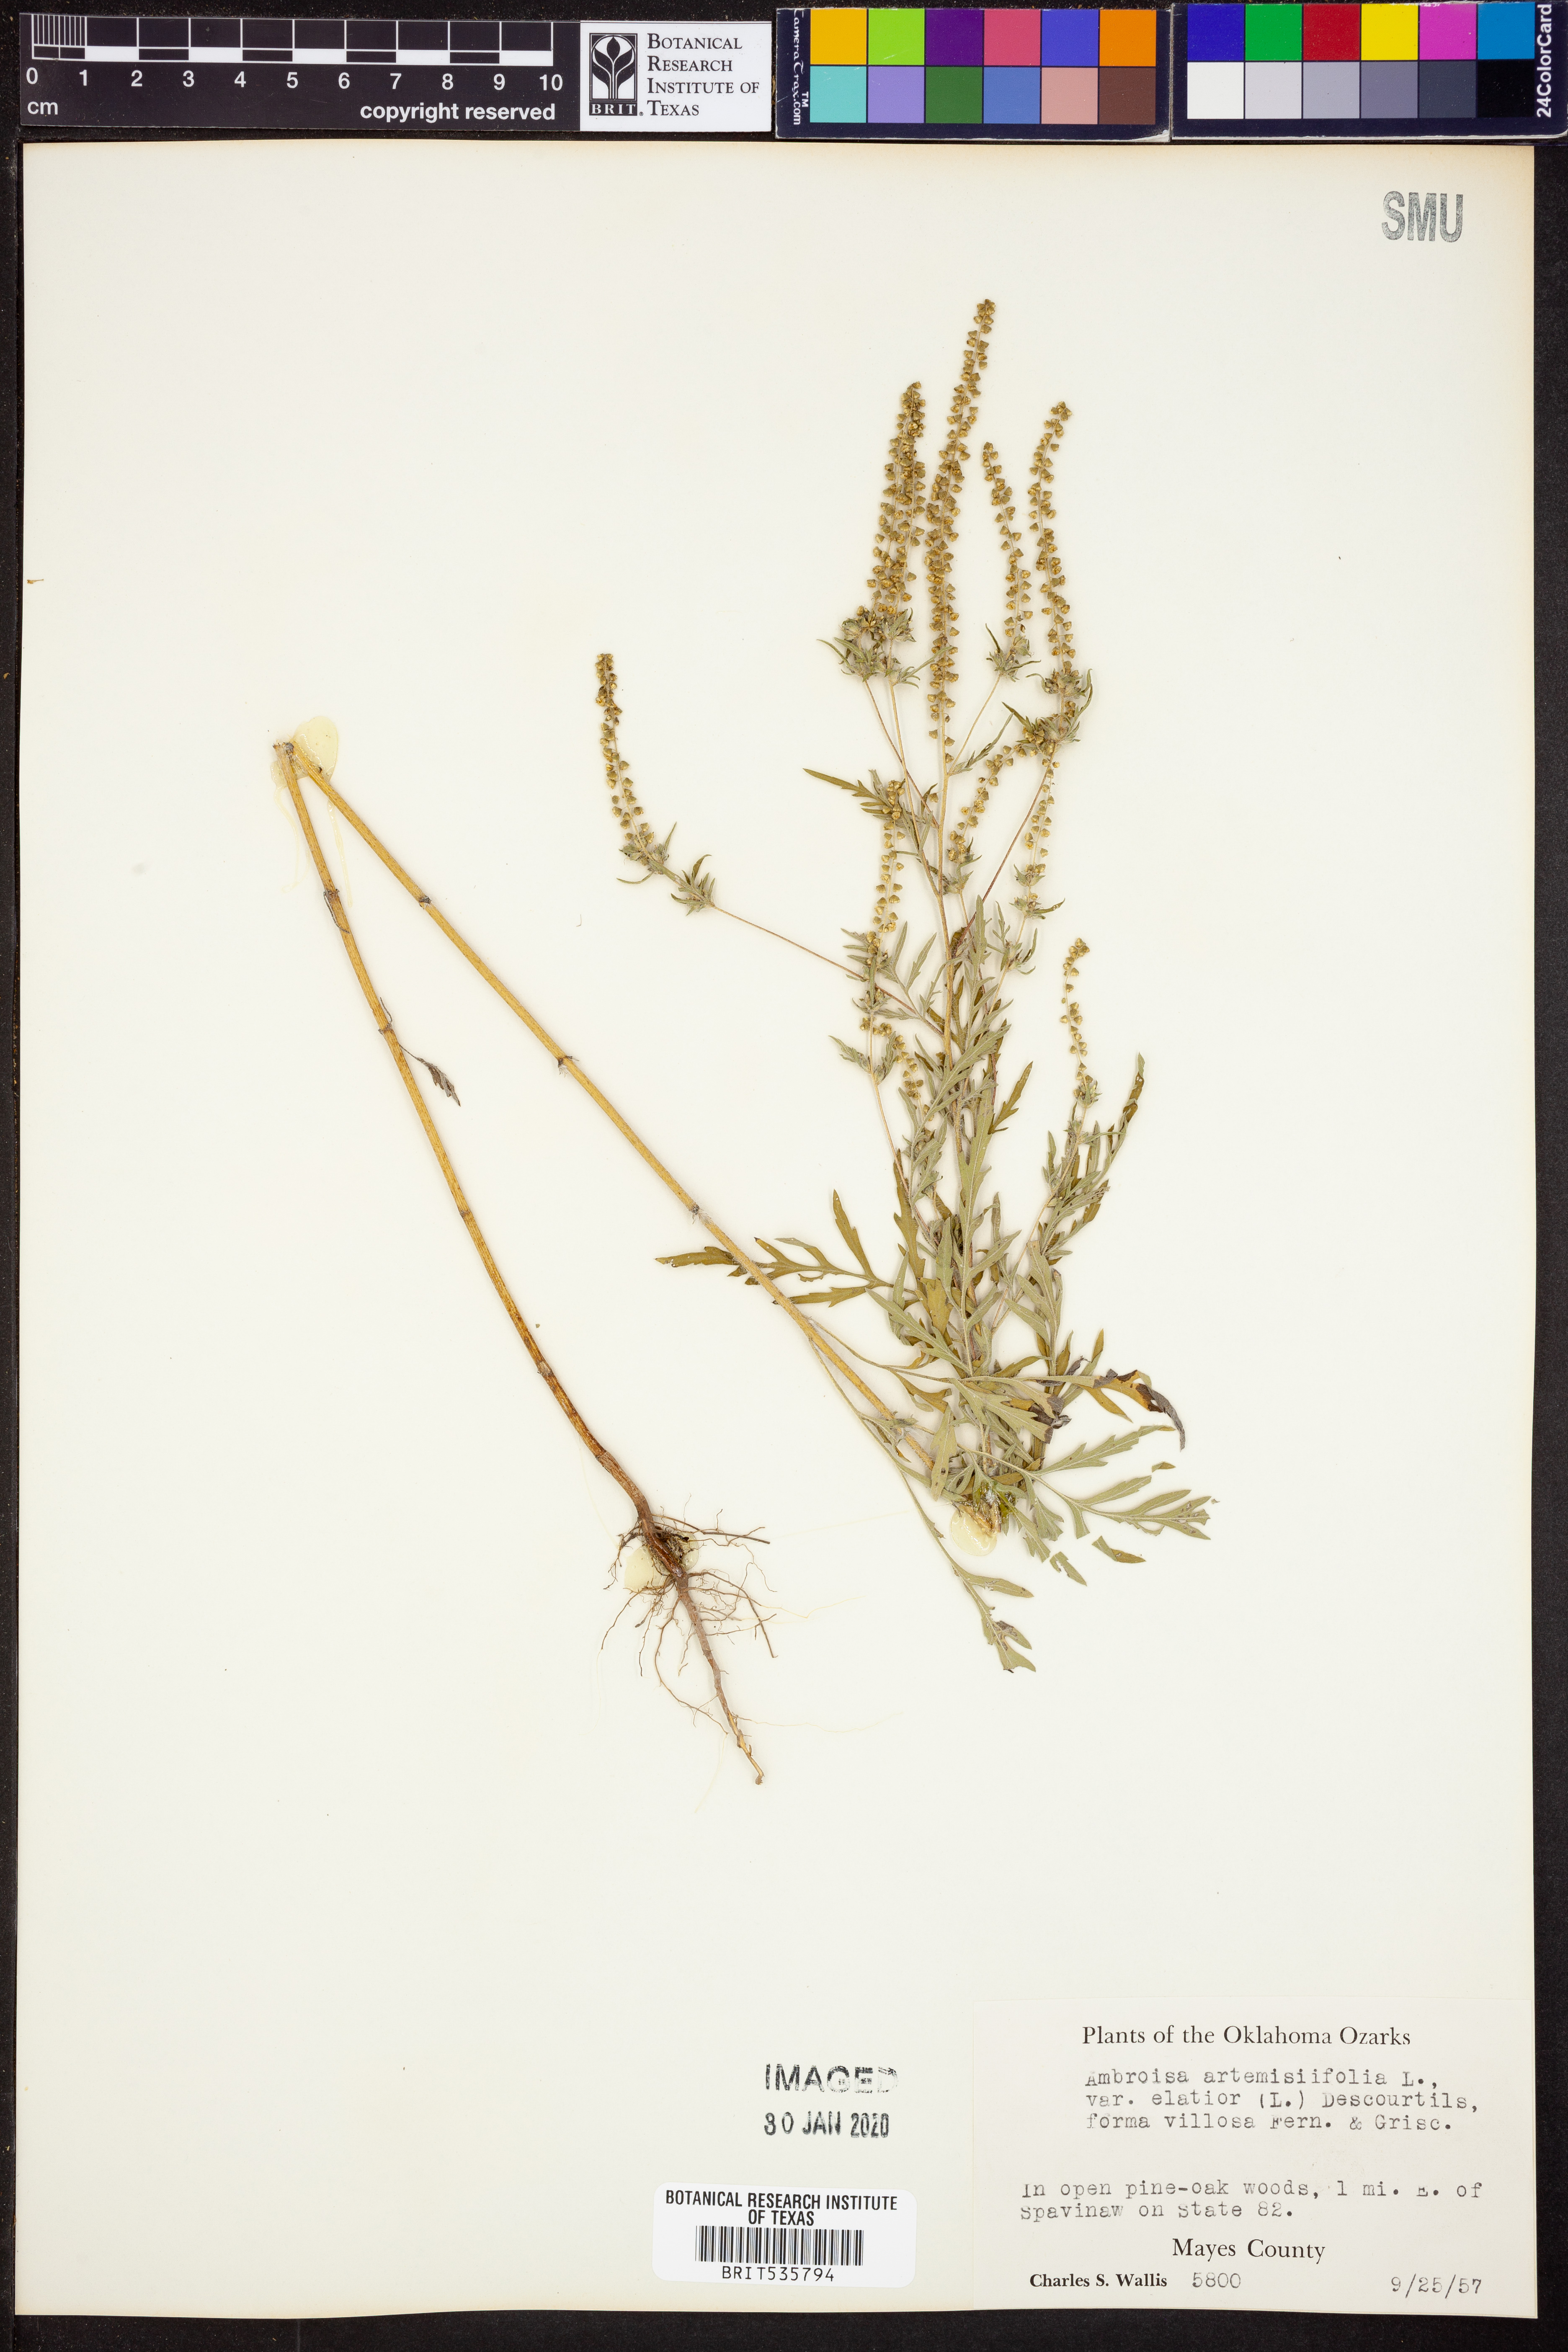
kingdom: Plantae
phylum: Tracheophyta
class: Magnoliopsida
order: Asterales
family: Asteraceae
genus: Ambrosia
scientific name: Ambrosia artemisiifolia
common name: Annual ragweed
